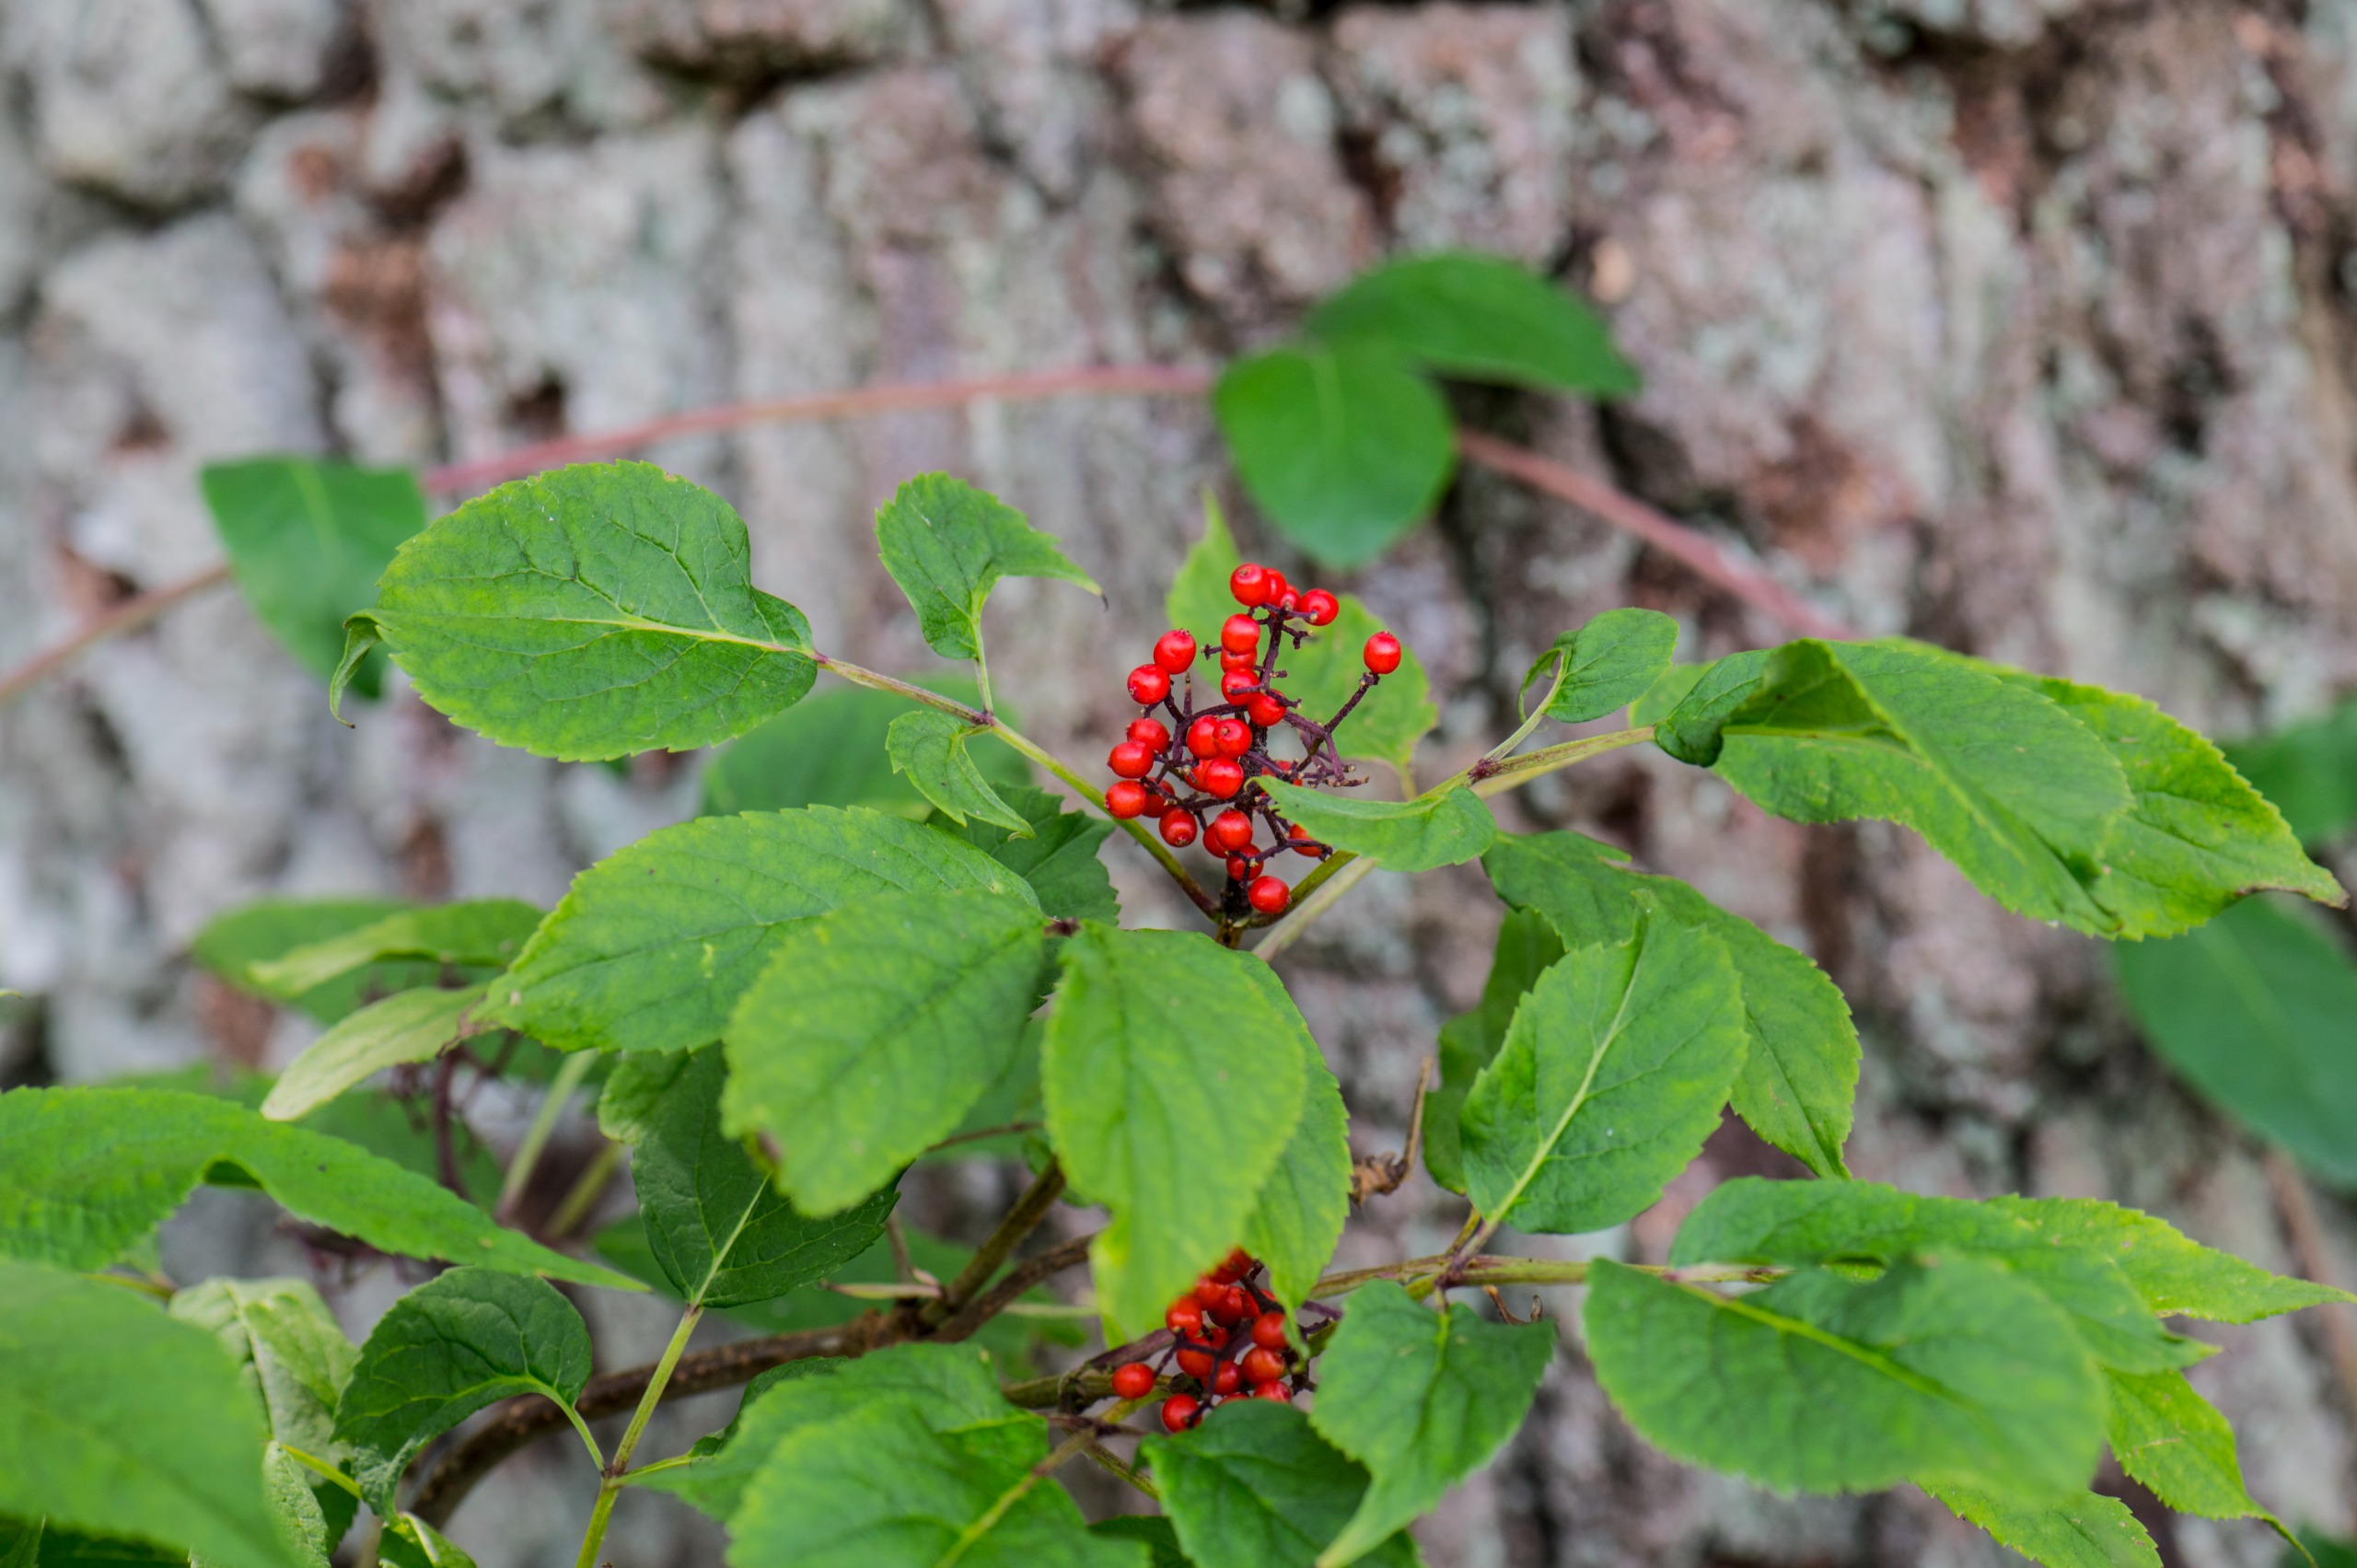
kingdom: Plantae
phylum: Tracheophyta
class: Magnoliopsida
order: Dipsacales
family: Viburnaceae
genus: Sambucus
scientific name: Sambucus racemosa
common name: Drue-hyld
